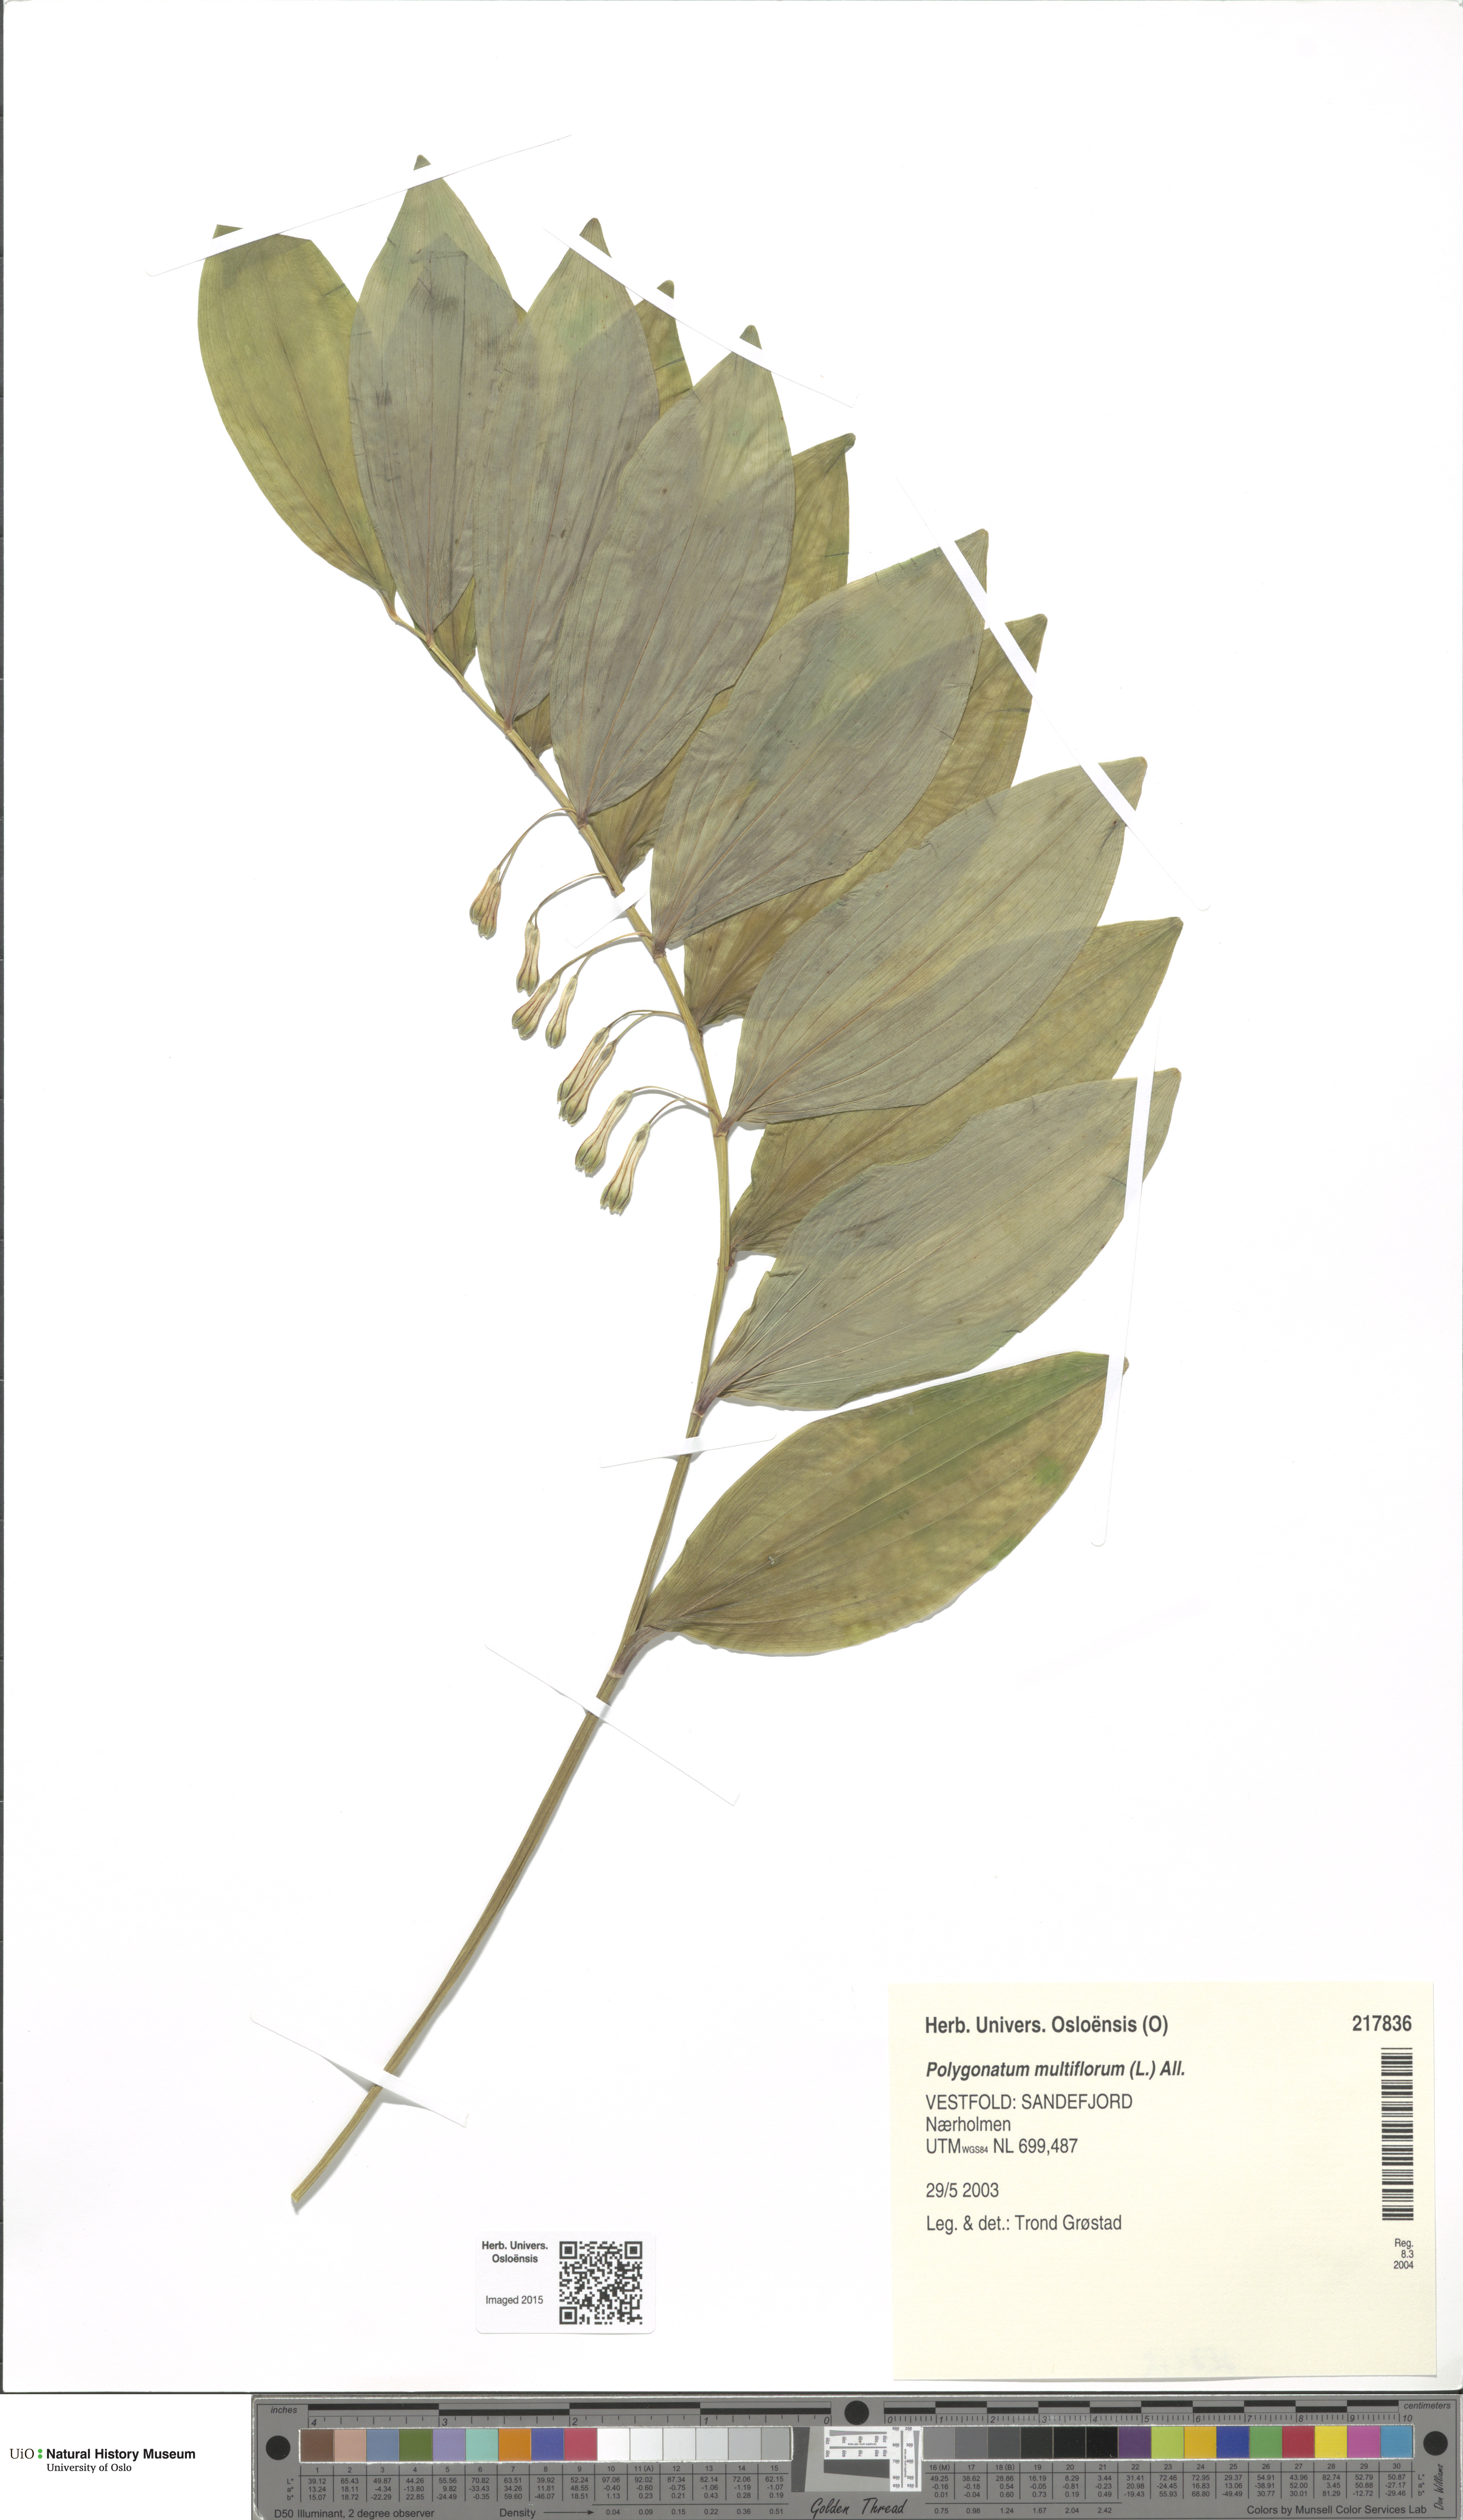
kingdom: Plantae
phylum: Tracheophyta
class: Liliopsida
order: Asparagales
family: Asparagaceae
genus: Polygonatum
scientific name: Polygonatum multiflorum
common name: Solomon's-seal
